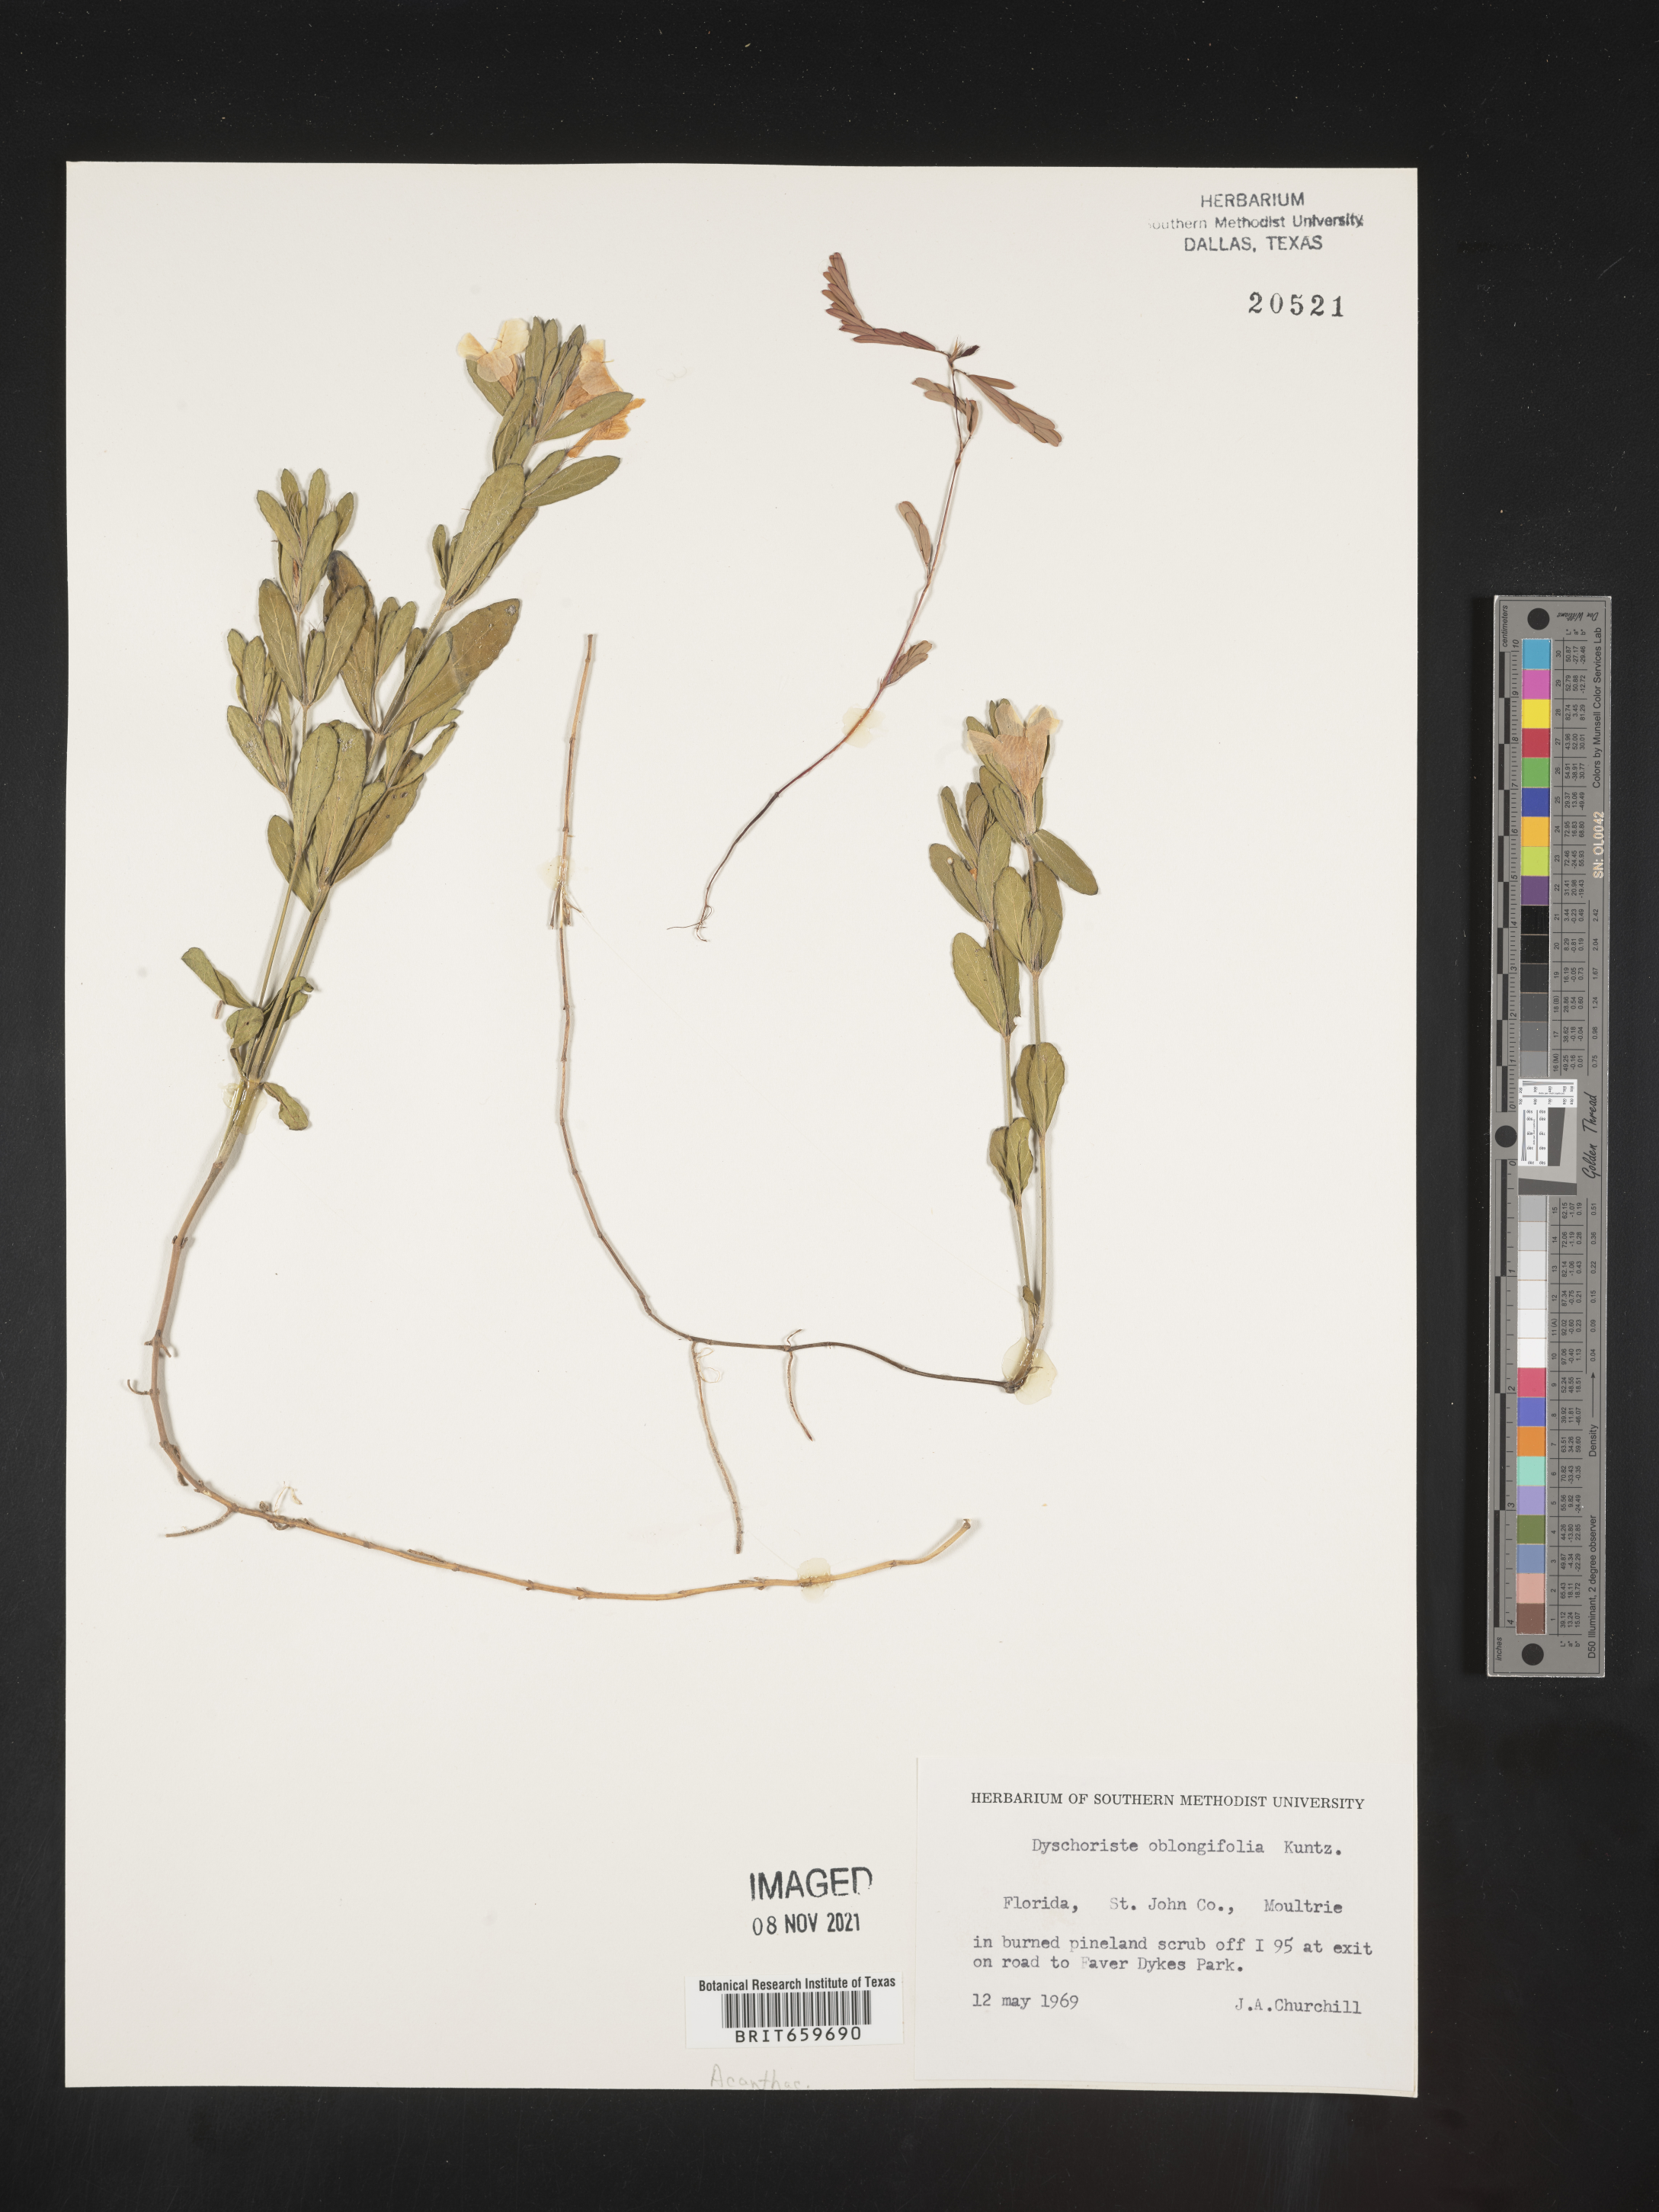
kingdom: Plantae
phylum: Tracheophyta
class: Magnoliopsida
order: Lamiales
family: Acanthaceae
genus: Dyschoriste
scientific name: Dyschoriste oblongifolia
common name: Blue twinflower
